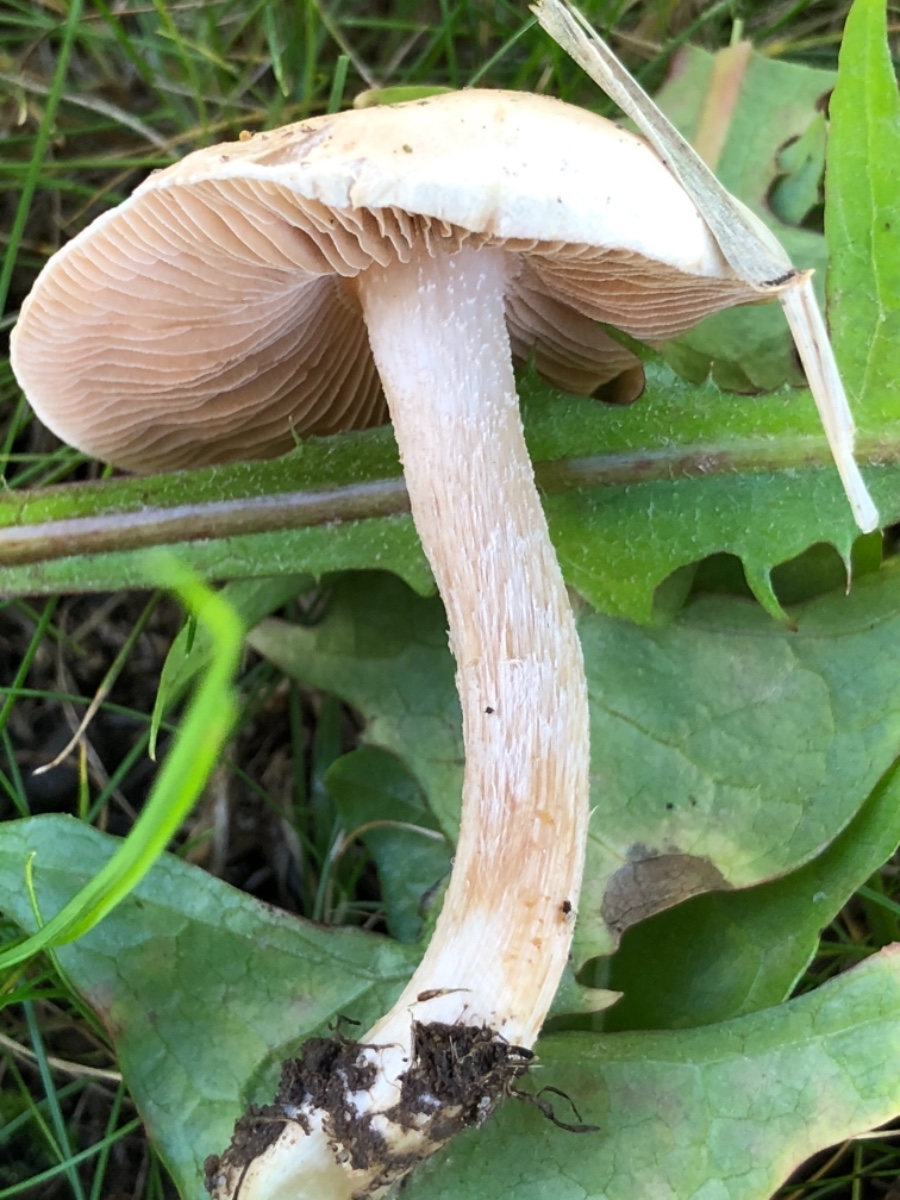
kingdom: Fungi
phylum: Basidiomycota
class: Agaricomycetes
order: Agaricales
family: Hymenogastraceae
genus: Hebeloma
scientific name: Hebeloma
